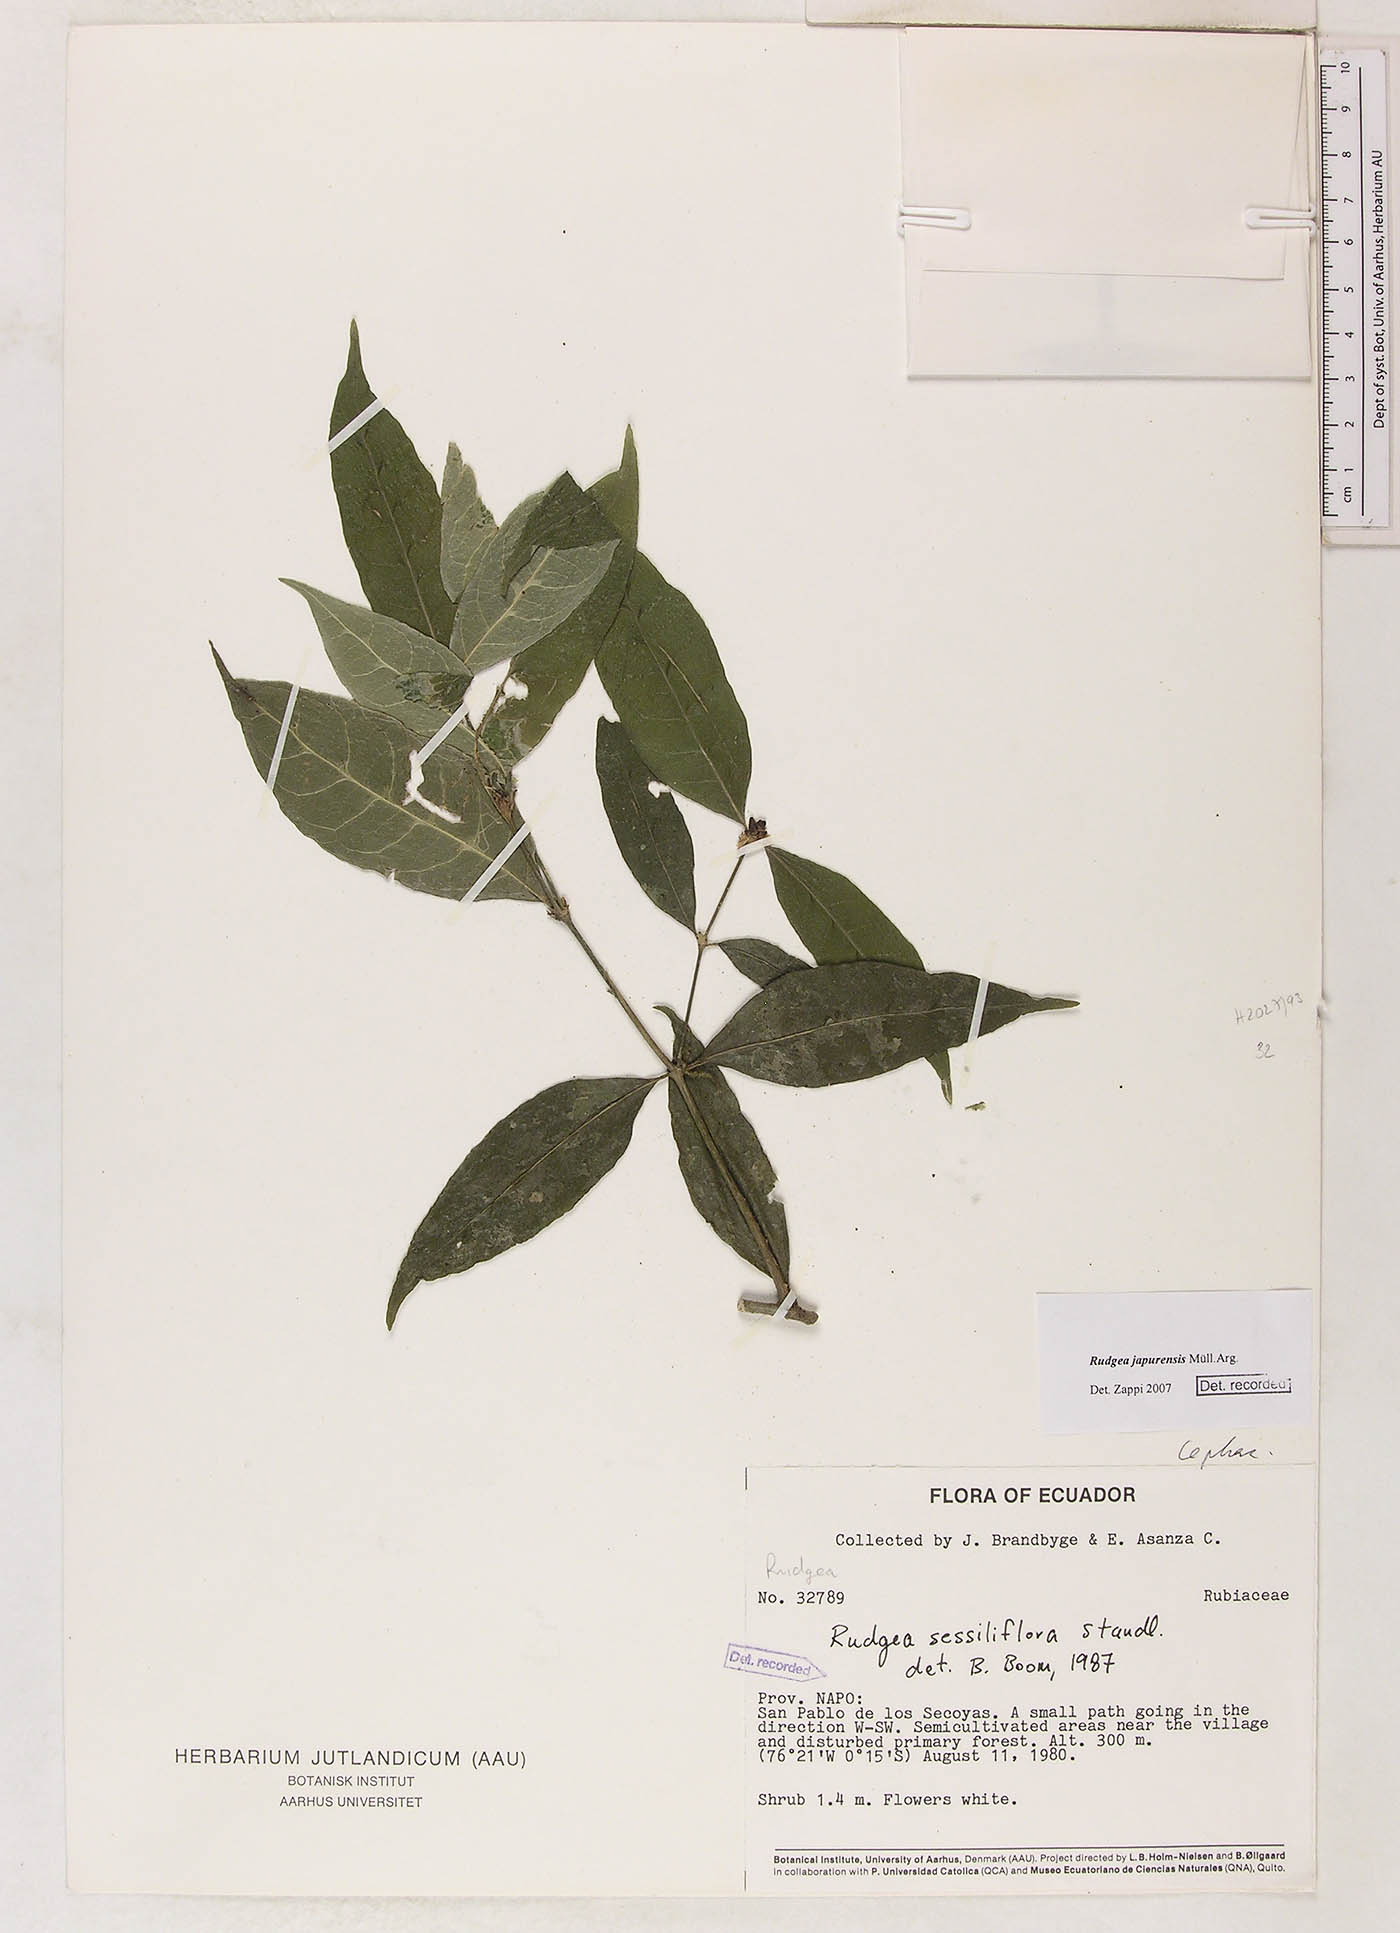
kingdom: Plantae
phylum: Tracheophyta
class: Magnoliopsida
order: Gentianales
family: Rubiaceae
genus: Rudgea
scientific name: Rudgea panurensis
